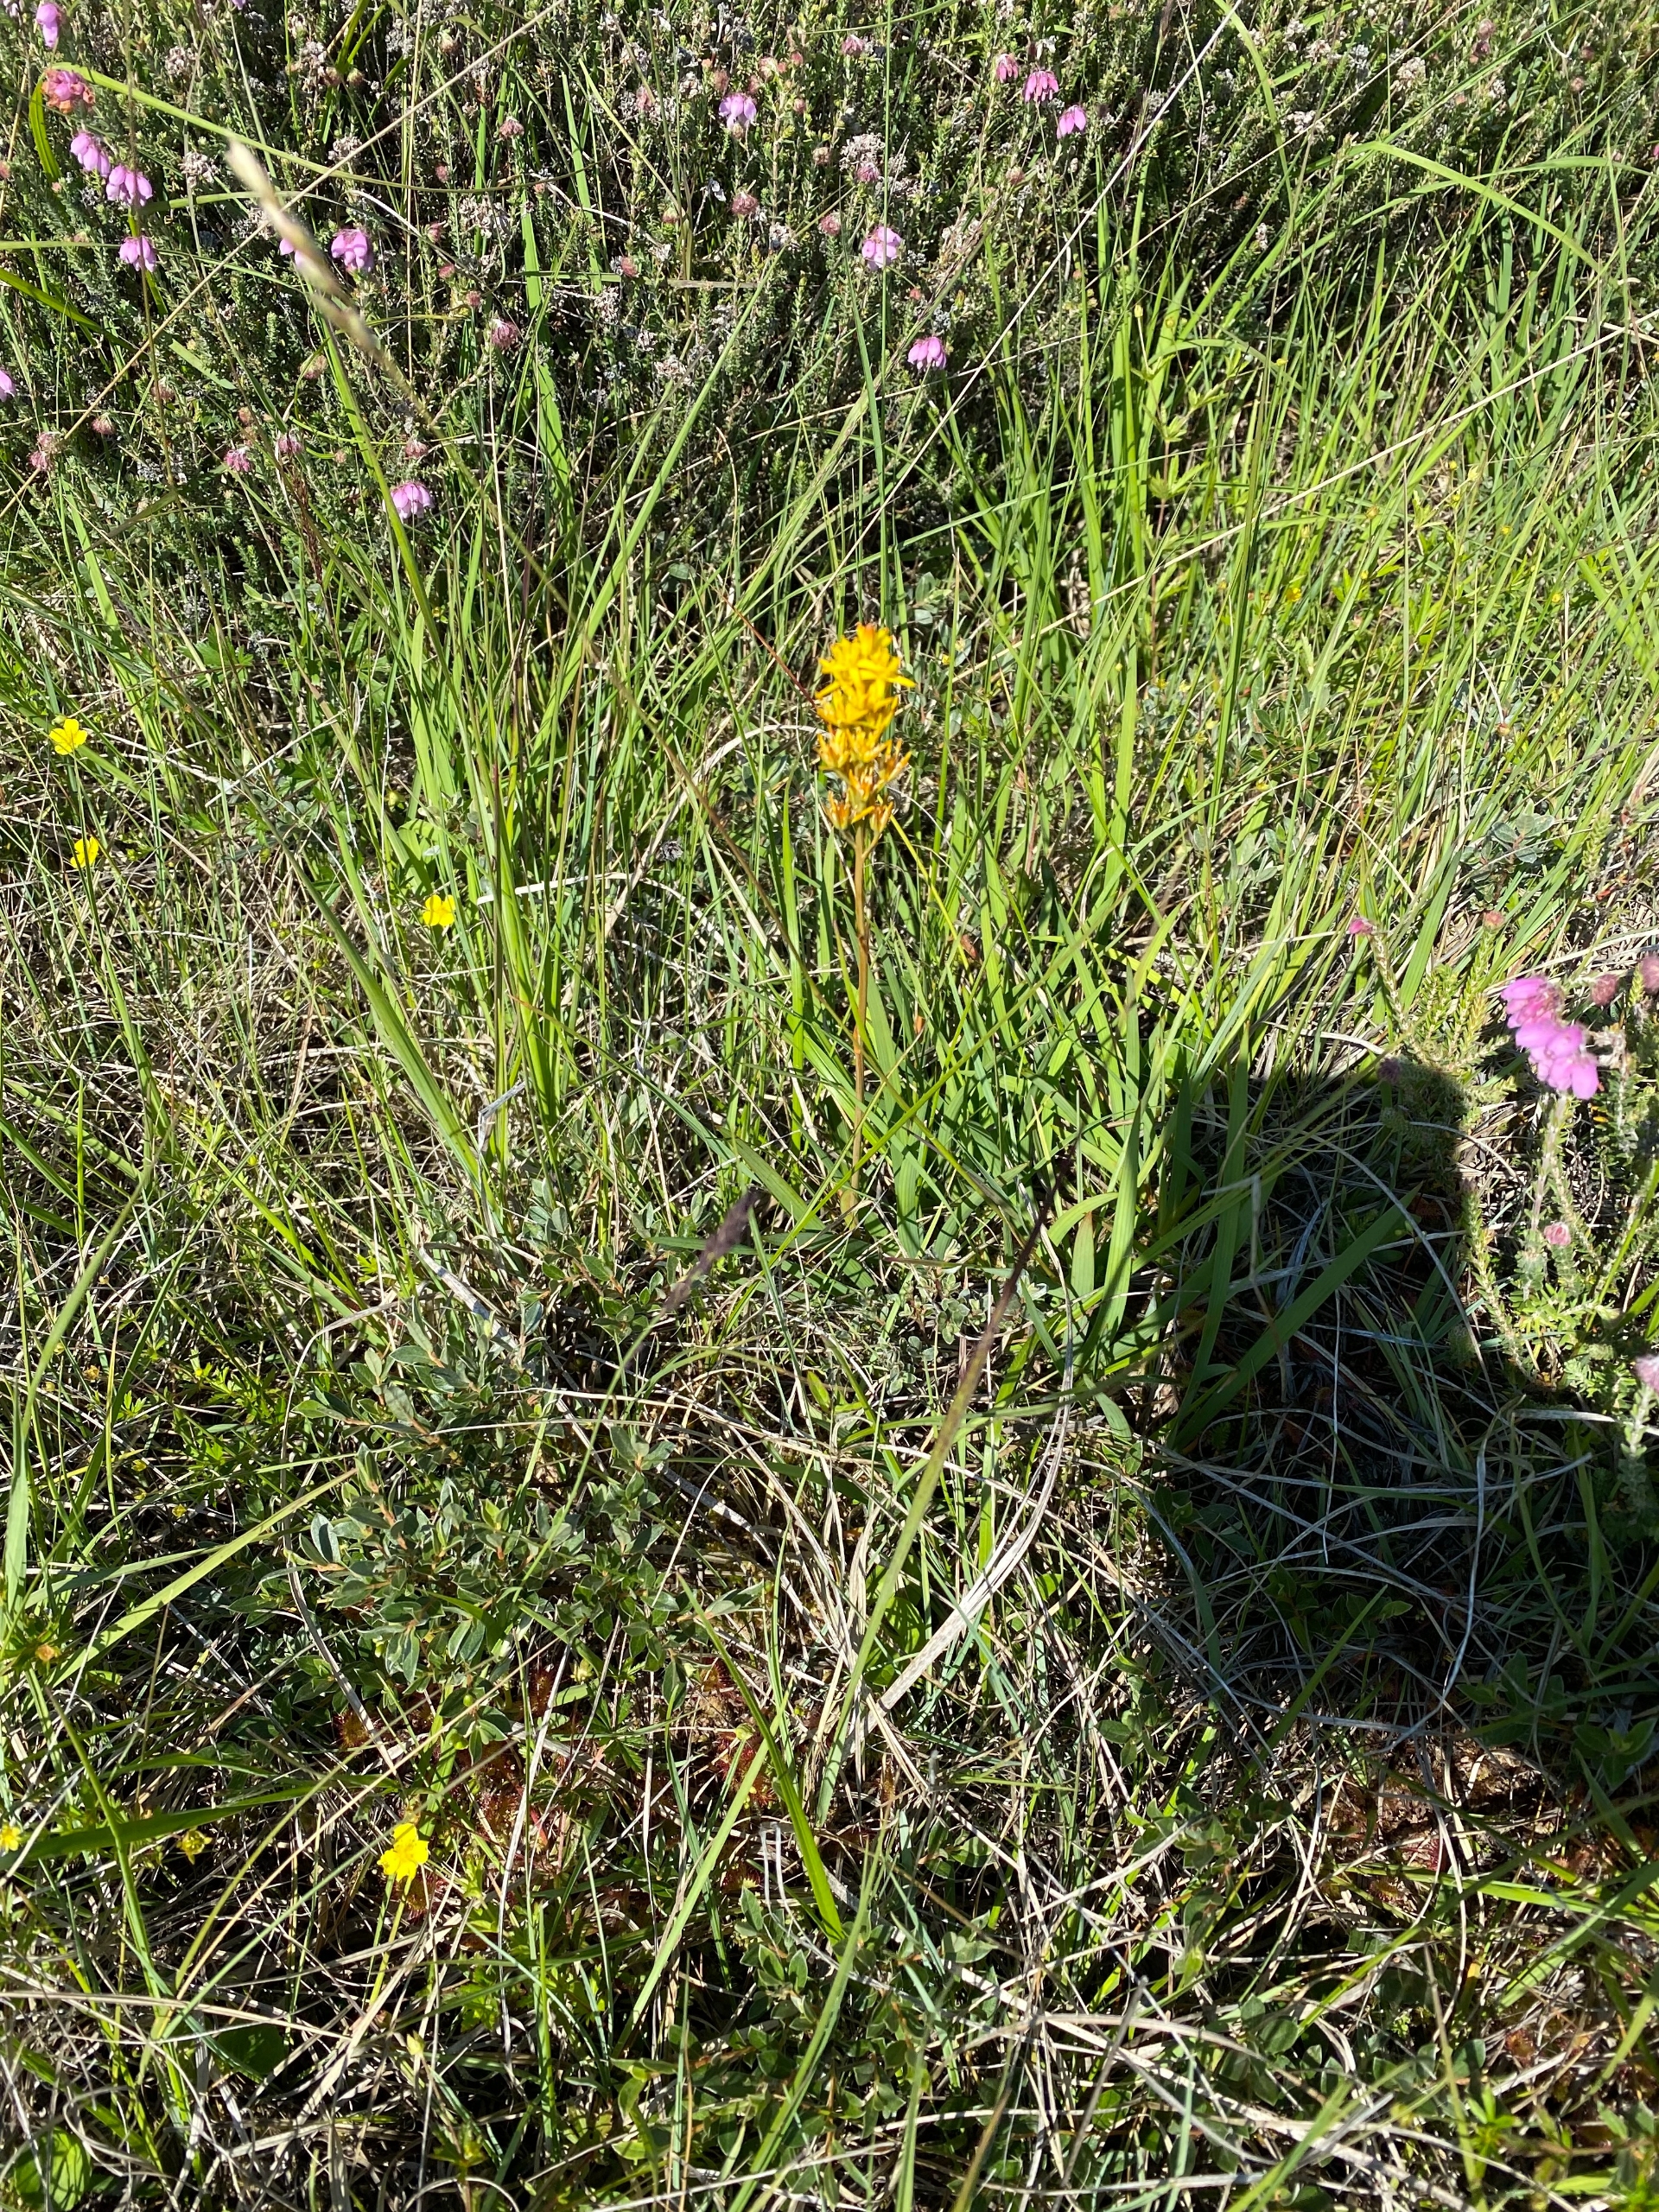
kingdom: Plantae
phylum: Tracheophyta
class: Liliopsida
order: Dioscoreales
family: Nartheciaceae
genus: Narthecium
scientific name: Narthecium ossifragum
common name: Benbræk
